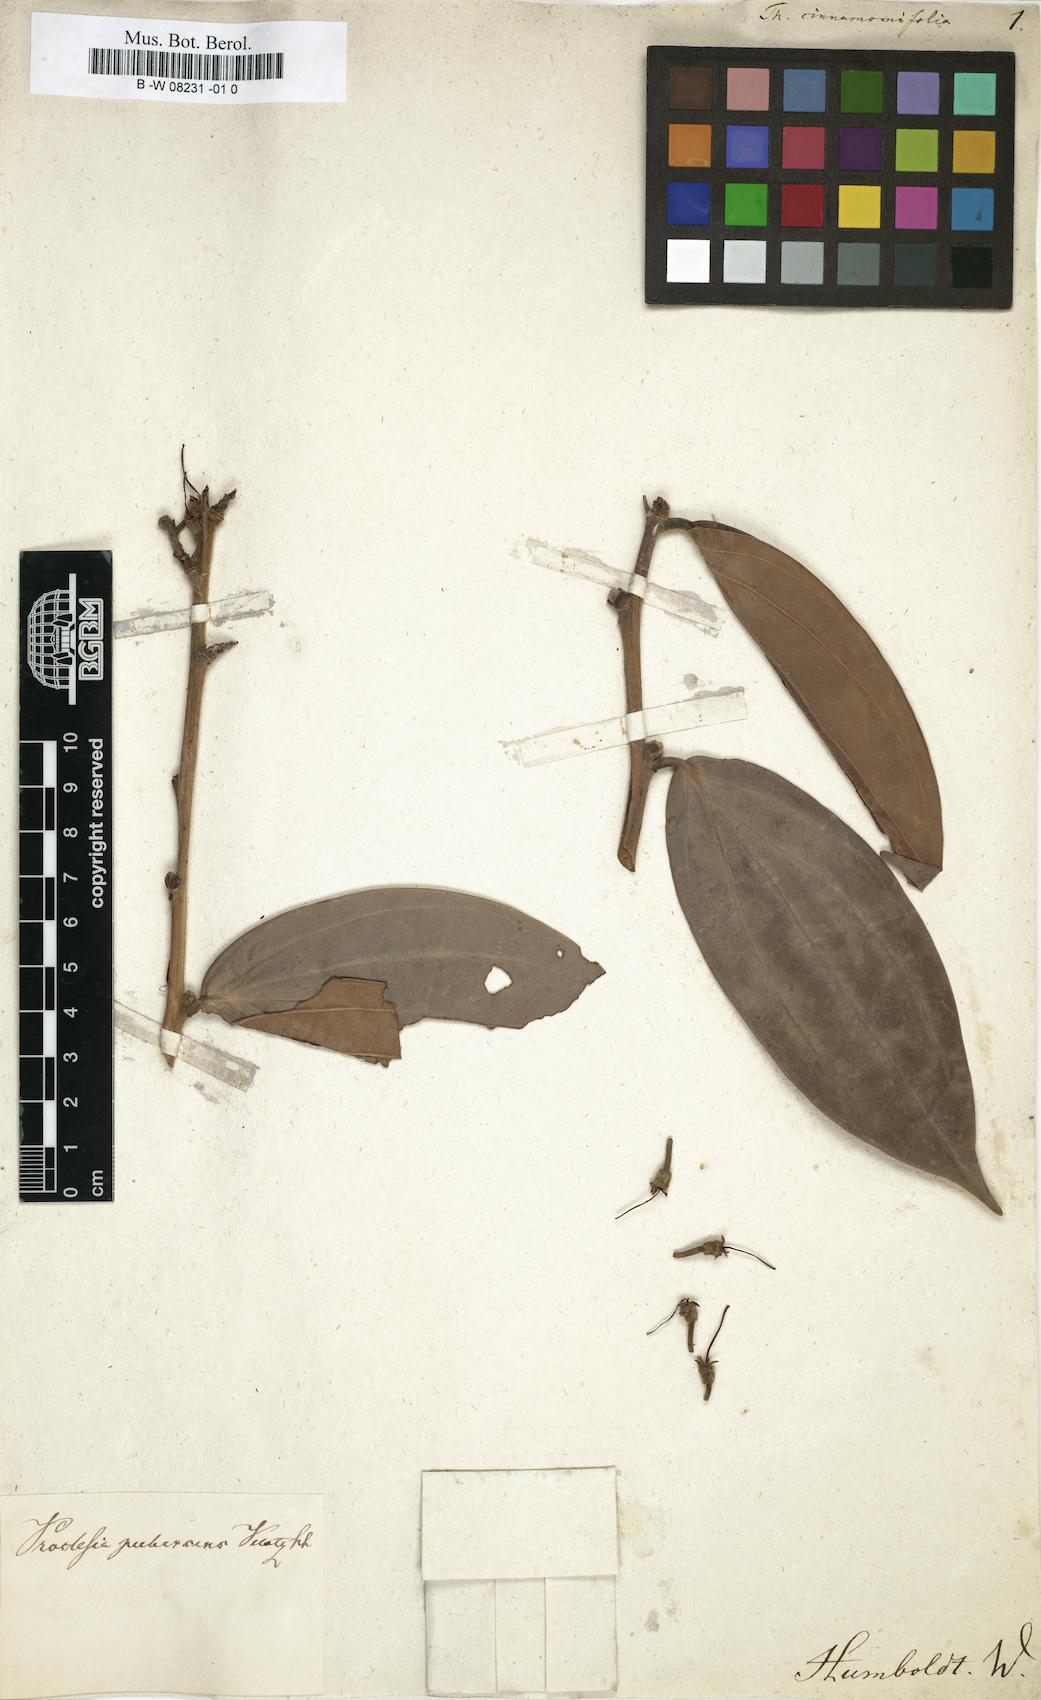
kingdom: Plantae
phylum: Tracheophyta
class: Magnoliopsida
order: Ericales
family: Ericaceae
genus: Cavendishia
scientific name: Cavendishia pubescens
